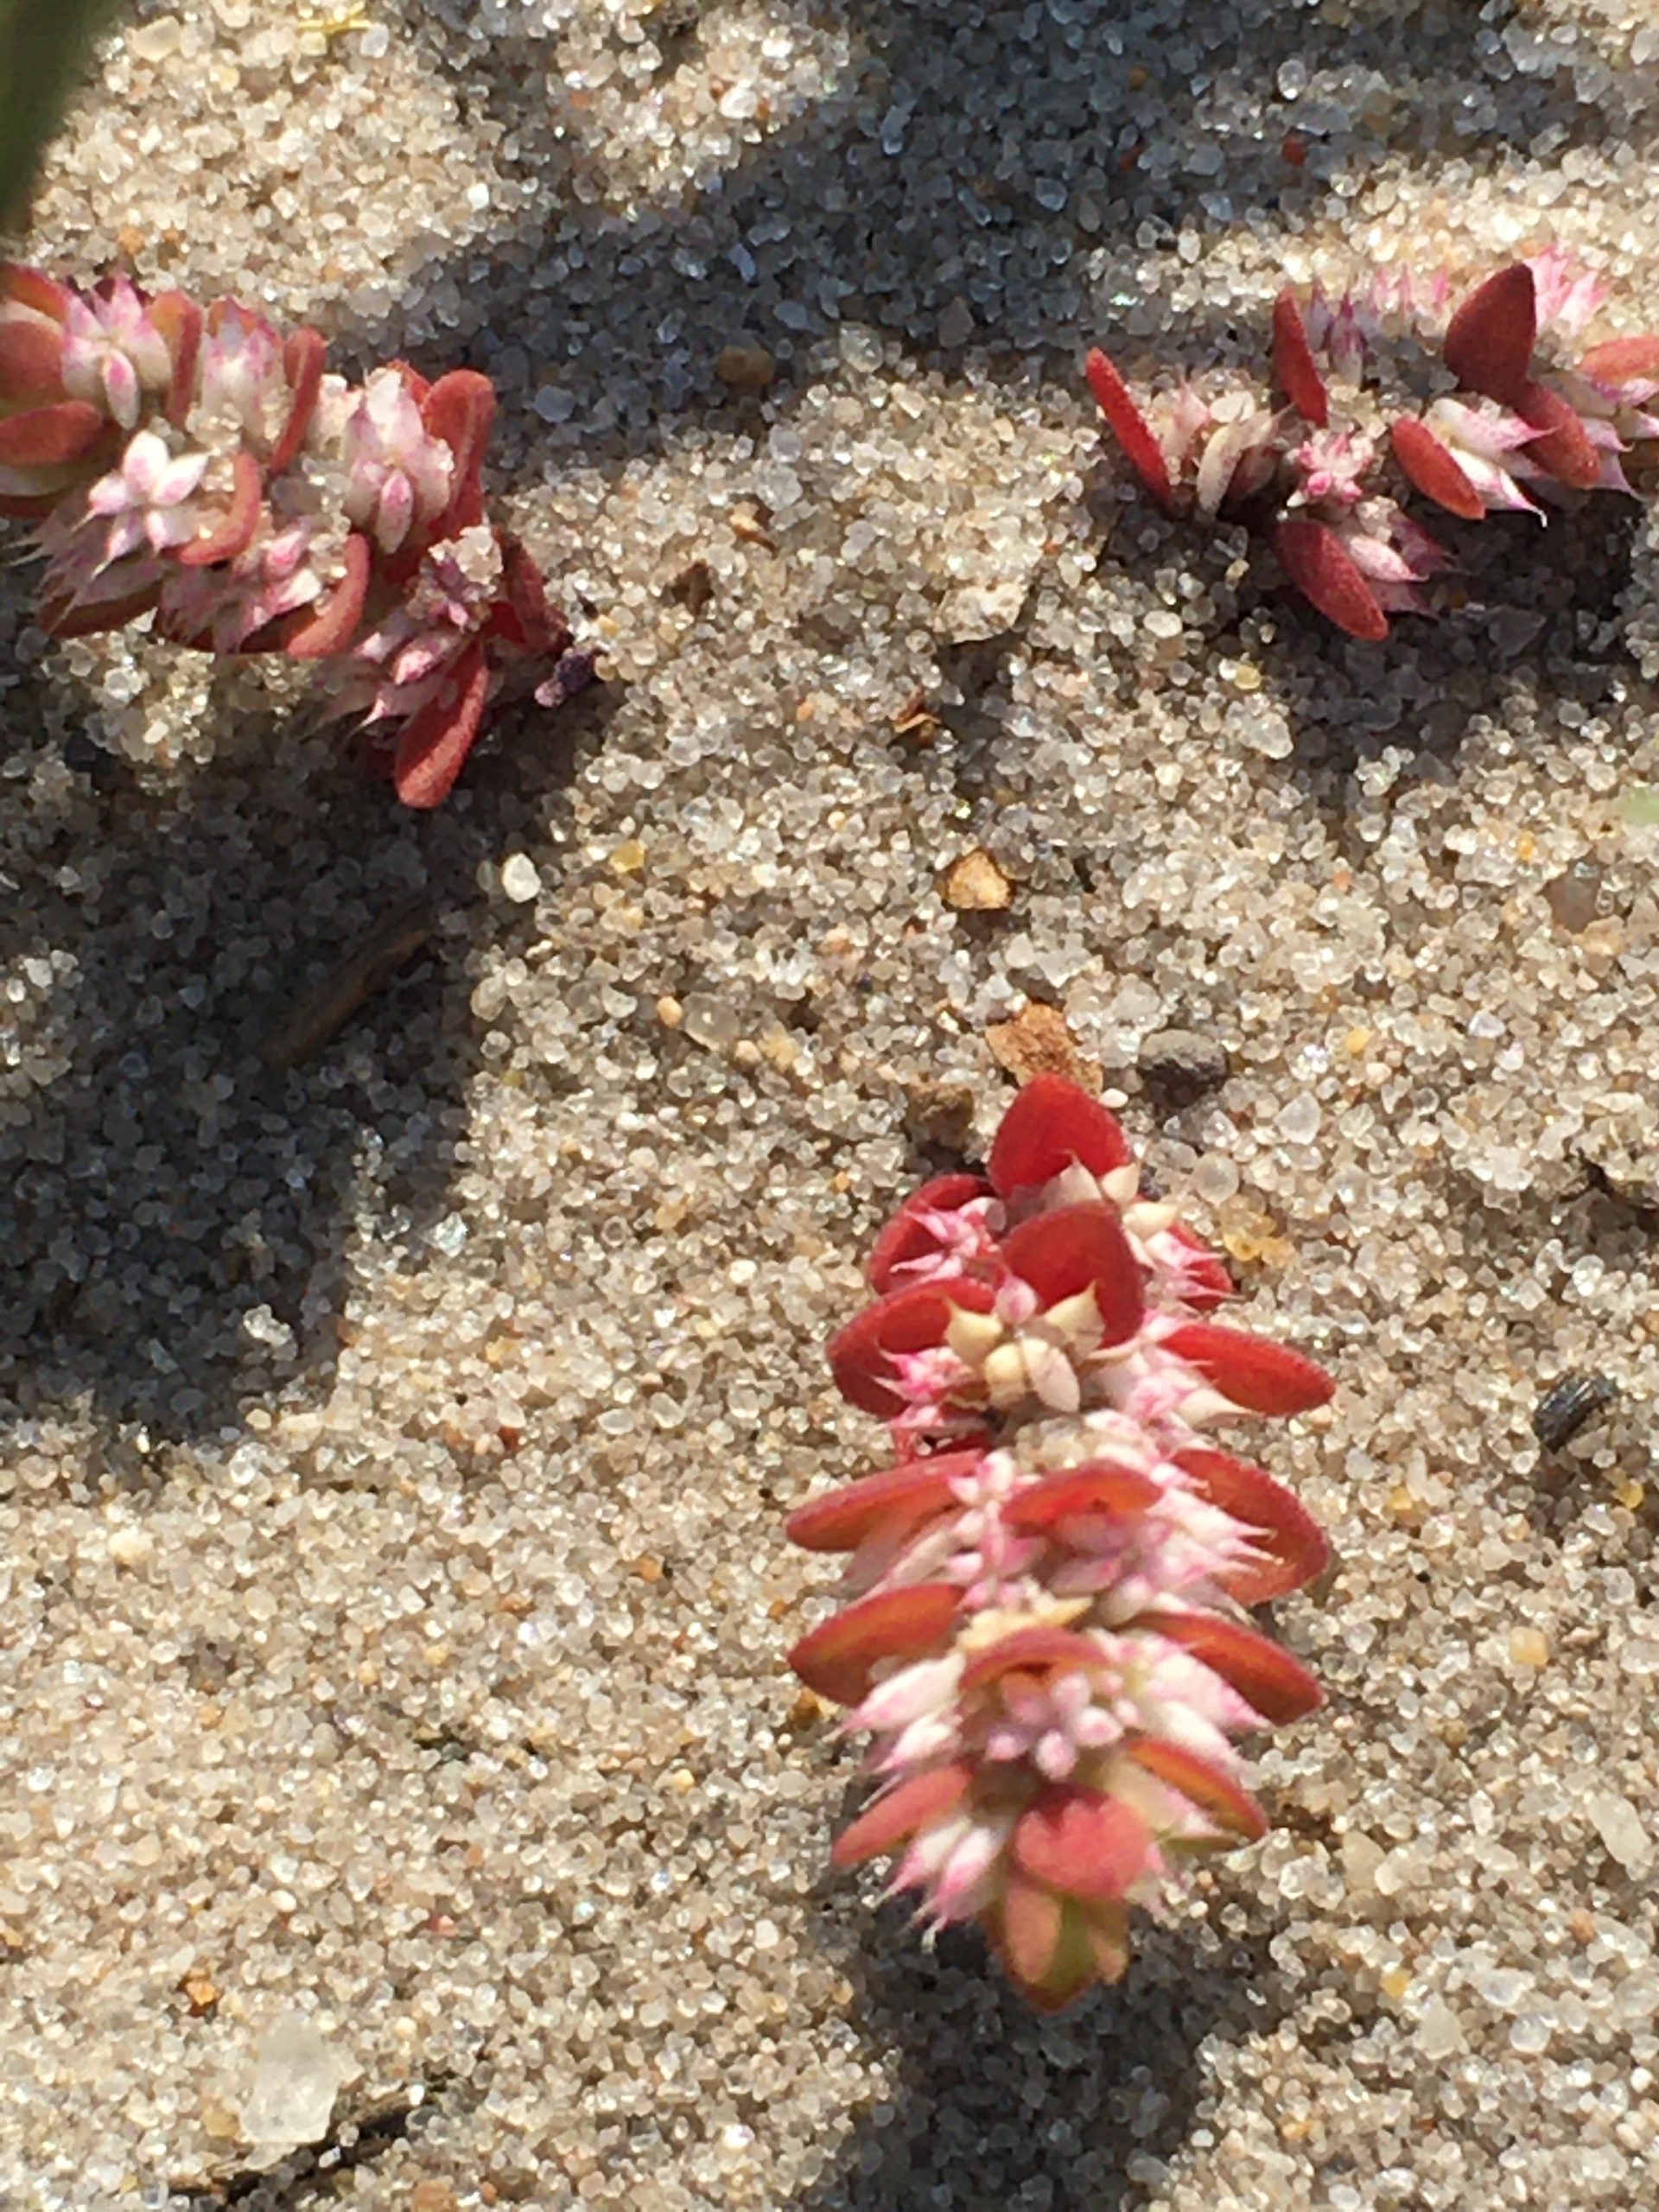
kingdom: Plantae
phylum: Tracheophyta
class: Magnoliopsida
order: Caryophyllales
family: Caryophyllaceae
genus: Illecebrum
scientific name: Illecebrum verticillatum
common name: Bruskbæger
